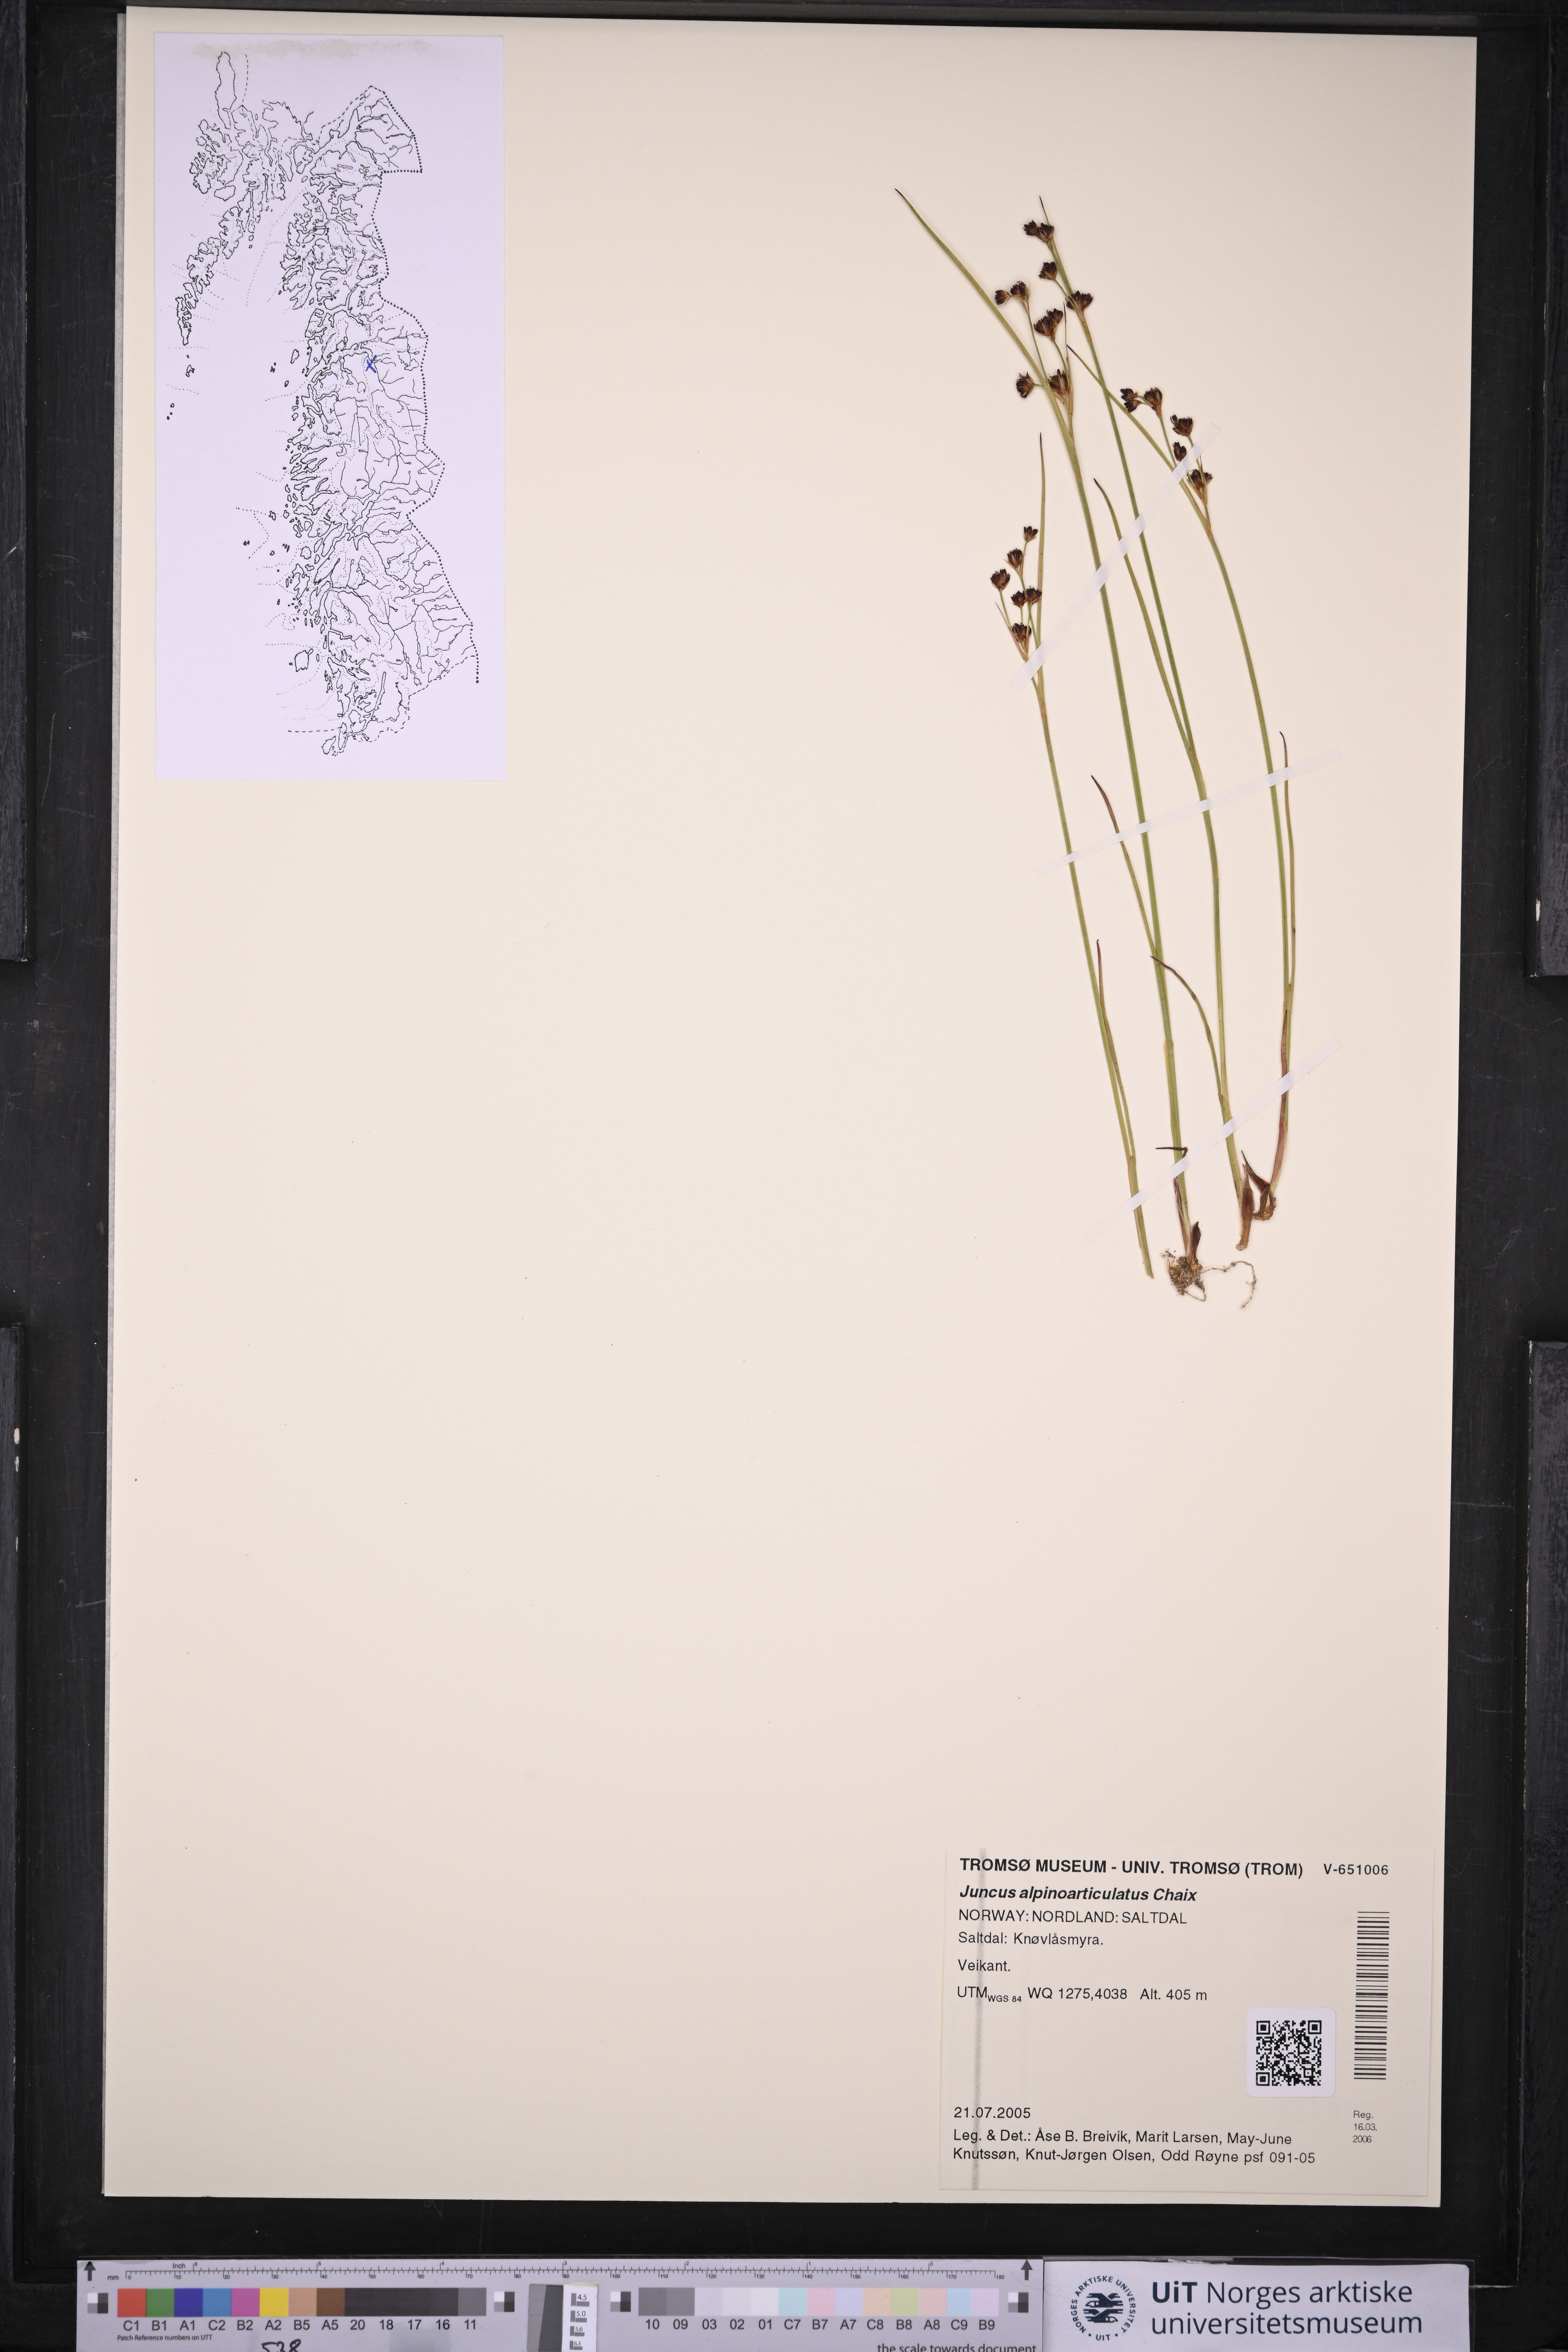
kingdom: Plantae
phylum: Tracheophyta
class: Liliopsida
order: Poales
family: Juncaceae
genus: Juncus
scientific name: Juncus alpinoarticulatus
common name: Alpine rush
